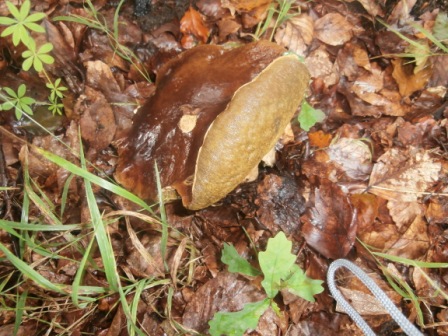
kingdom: Fungi
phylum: Basidiomycota
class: Agaricomycetes
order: Boletales
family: Boletaceae
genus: Boletus
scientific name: Boletus edulis
